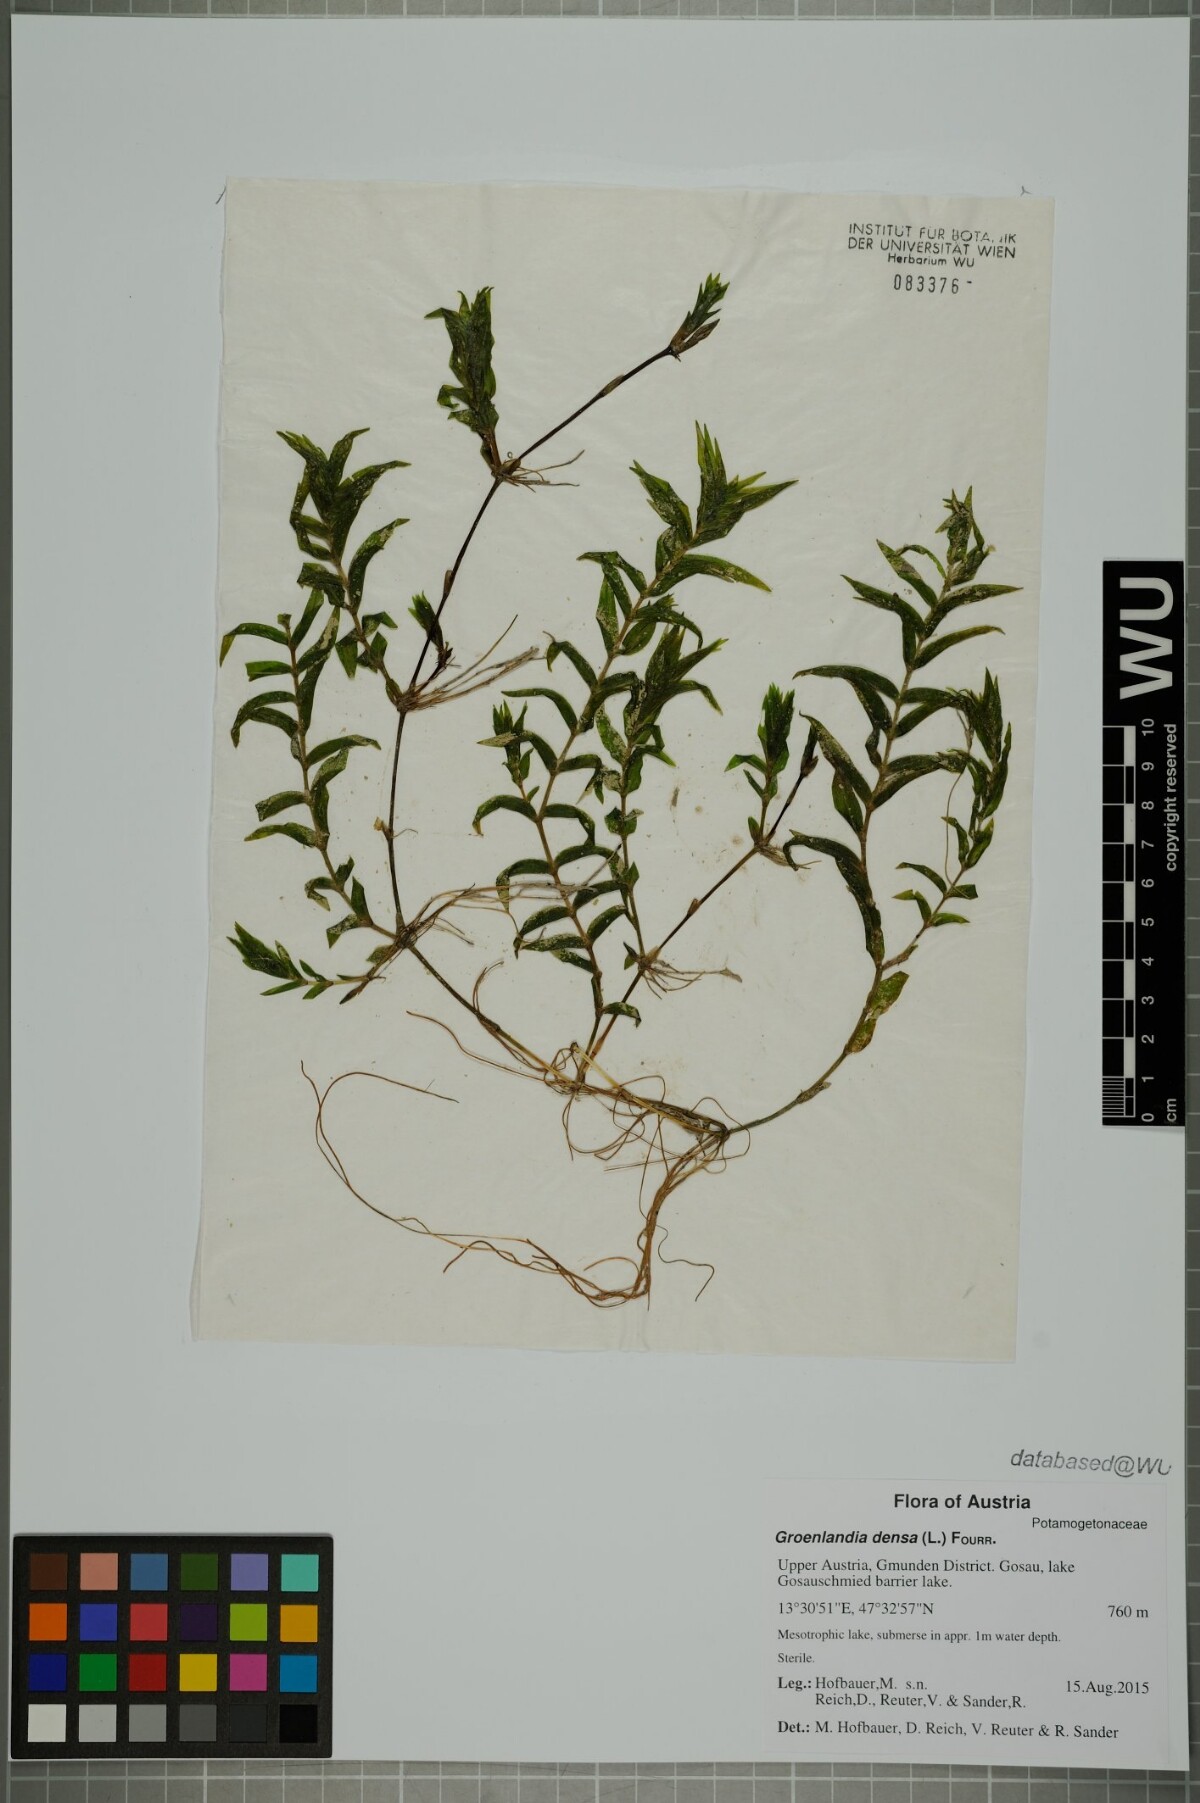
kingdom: Plantae
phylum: Tracheophyta
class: Liliopsida
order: Alismatales
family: Potamogetonaceae
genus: Groenlandia
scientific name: Groenlandia densa
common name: Opposite-leaved pondweed
